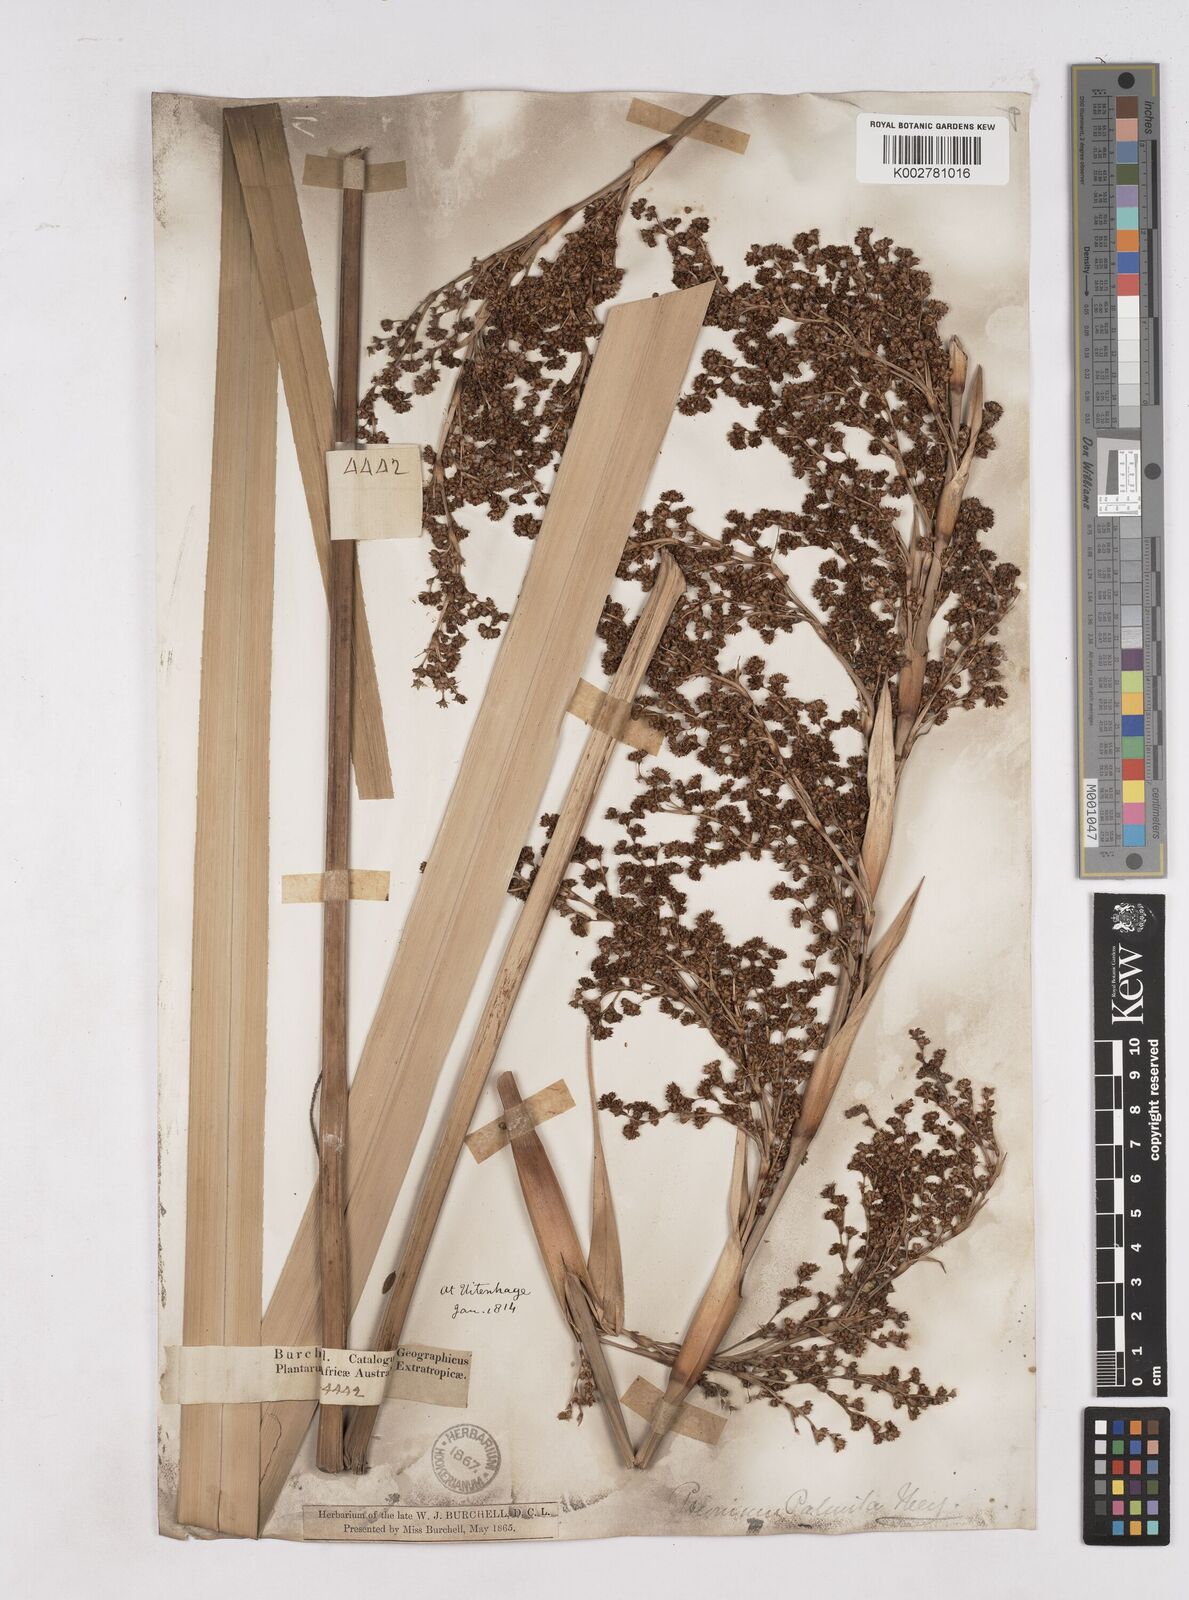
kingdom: Plantae
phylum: Tracheophyta
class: Liliopsida
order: Poales
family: Thurniaceae
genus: Prionium
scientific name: Prionium serratum
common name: Palmiet
